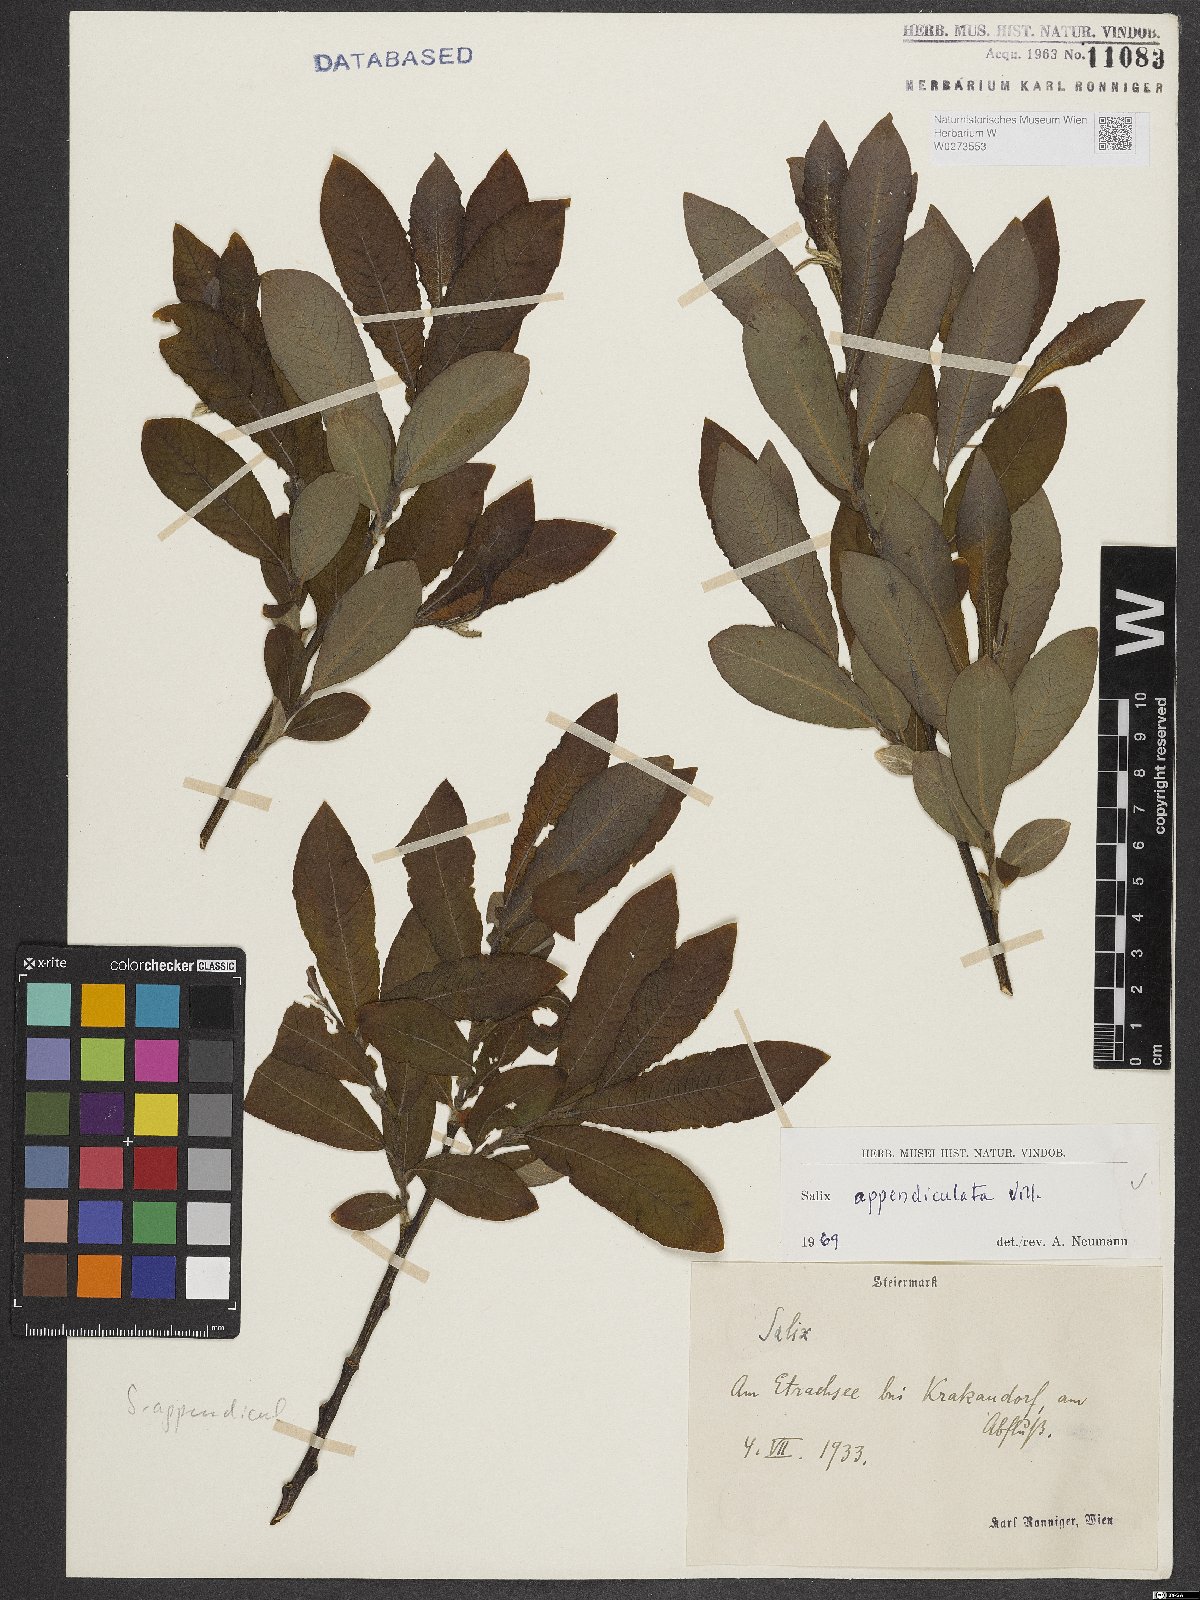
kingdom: Plantae
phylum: Tracheophyta
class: Magnoliopsida
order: Malpighiales
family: Salicaceae
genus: Salix
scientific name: Salix appendiculata
